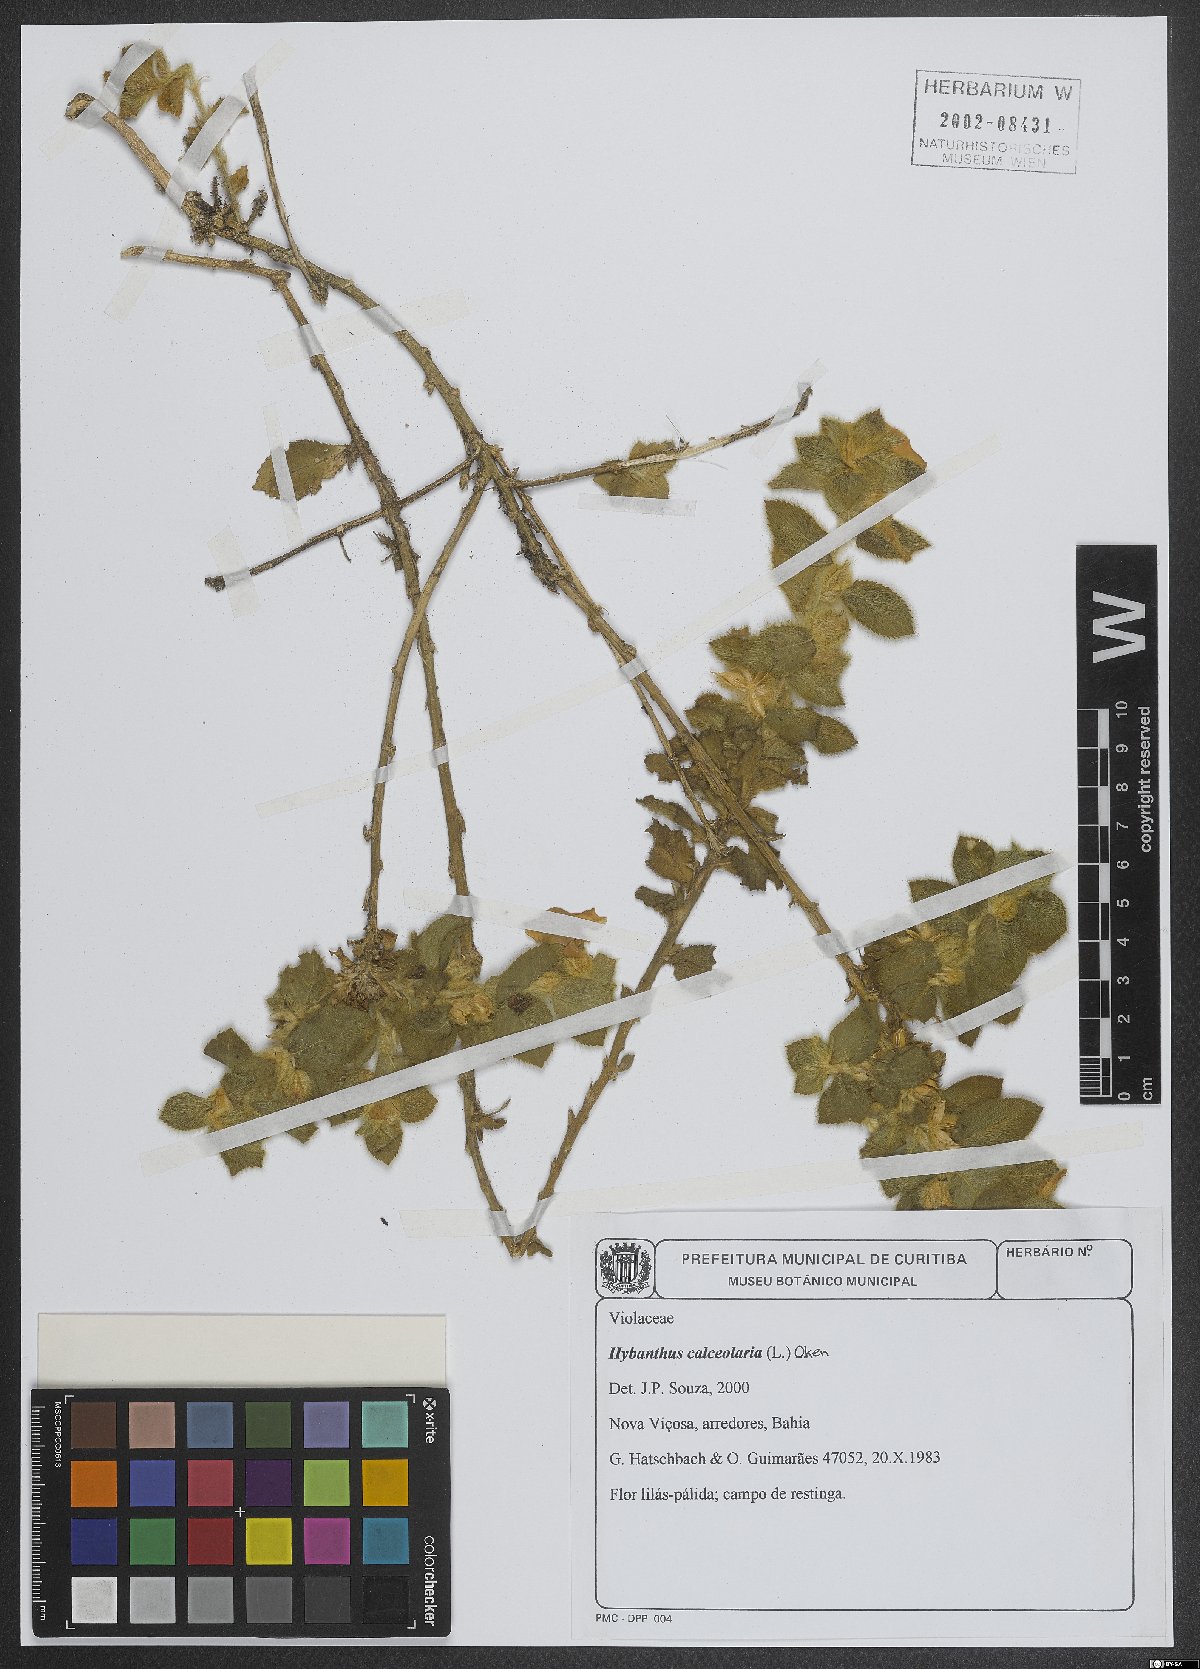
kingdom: Plantae
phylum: Tracheophyta
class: Magnoliopsida
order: Malpighiales
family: Violaceae
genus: Pombalia
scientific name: Pombalia calceolaria
